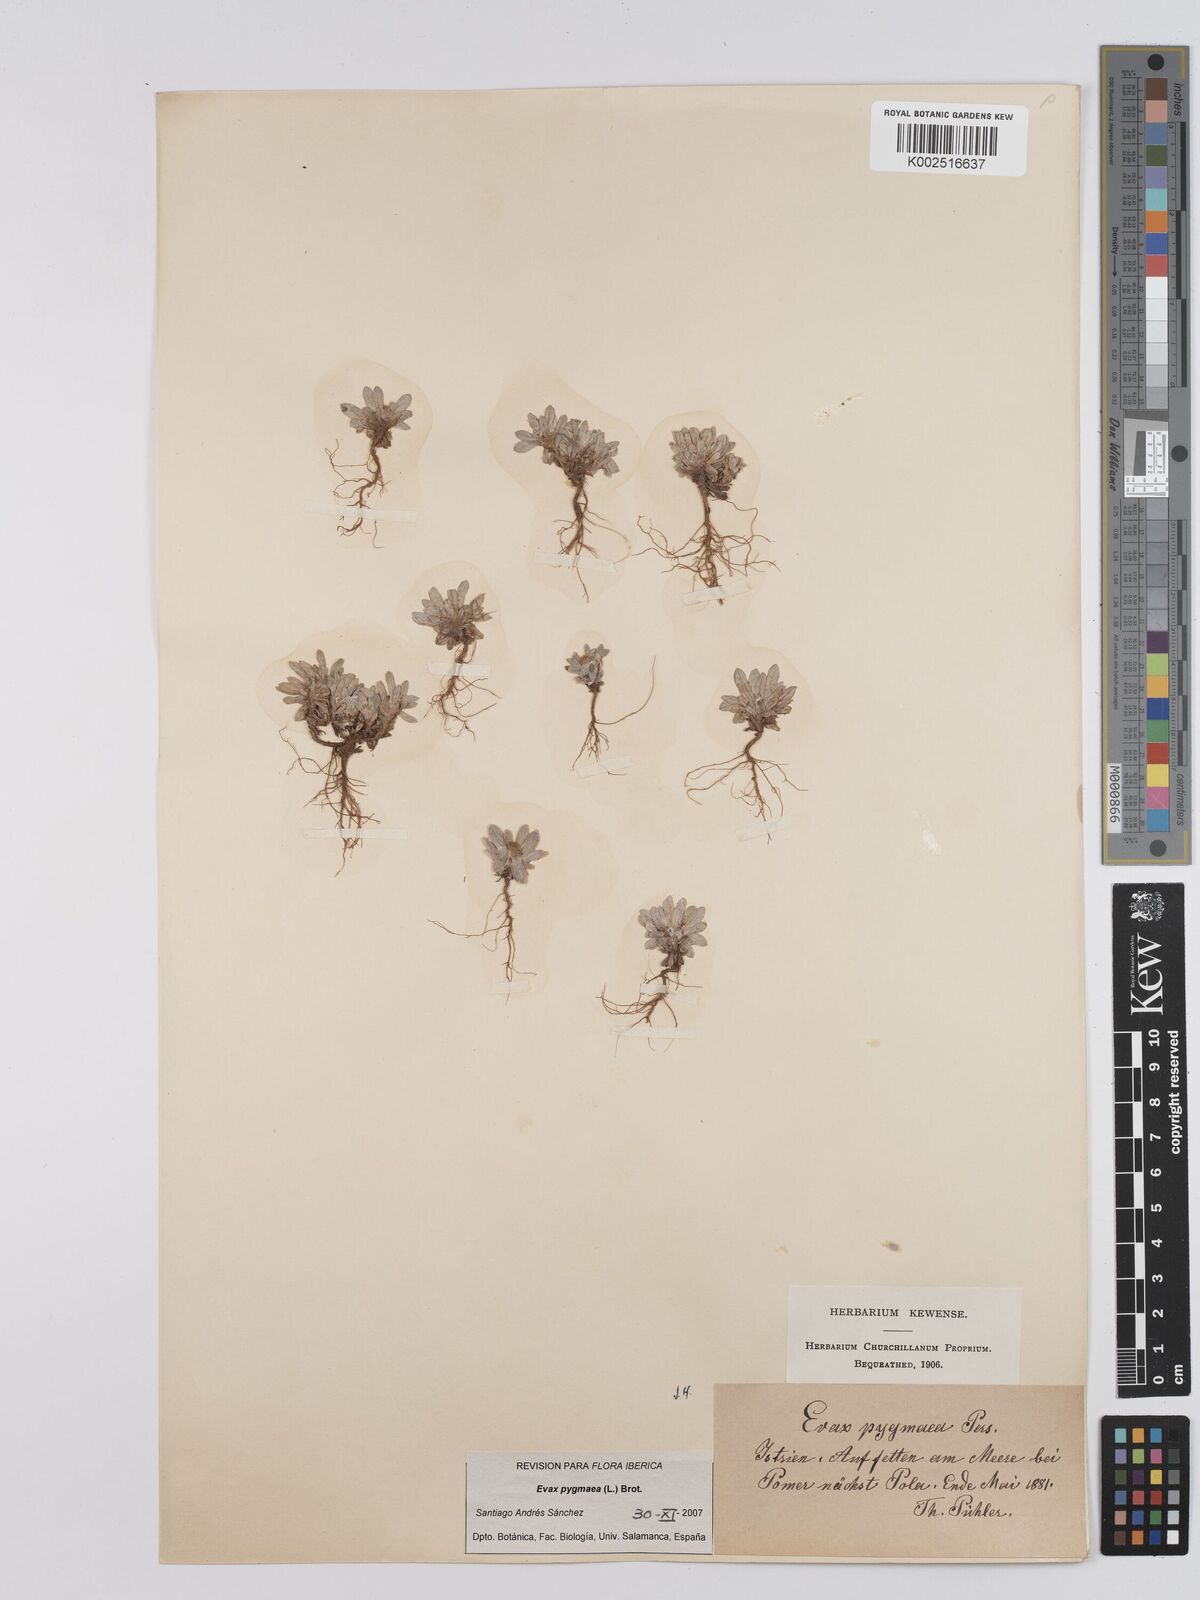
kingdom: Plantae
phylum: Tracheophyta
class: Magnoliopsida
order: Asterales
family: Asteraceae
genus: Filago
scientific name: Filago pygmaea
